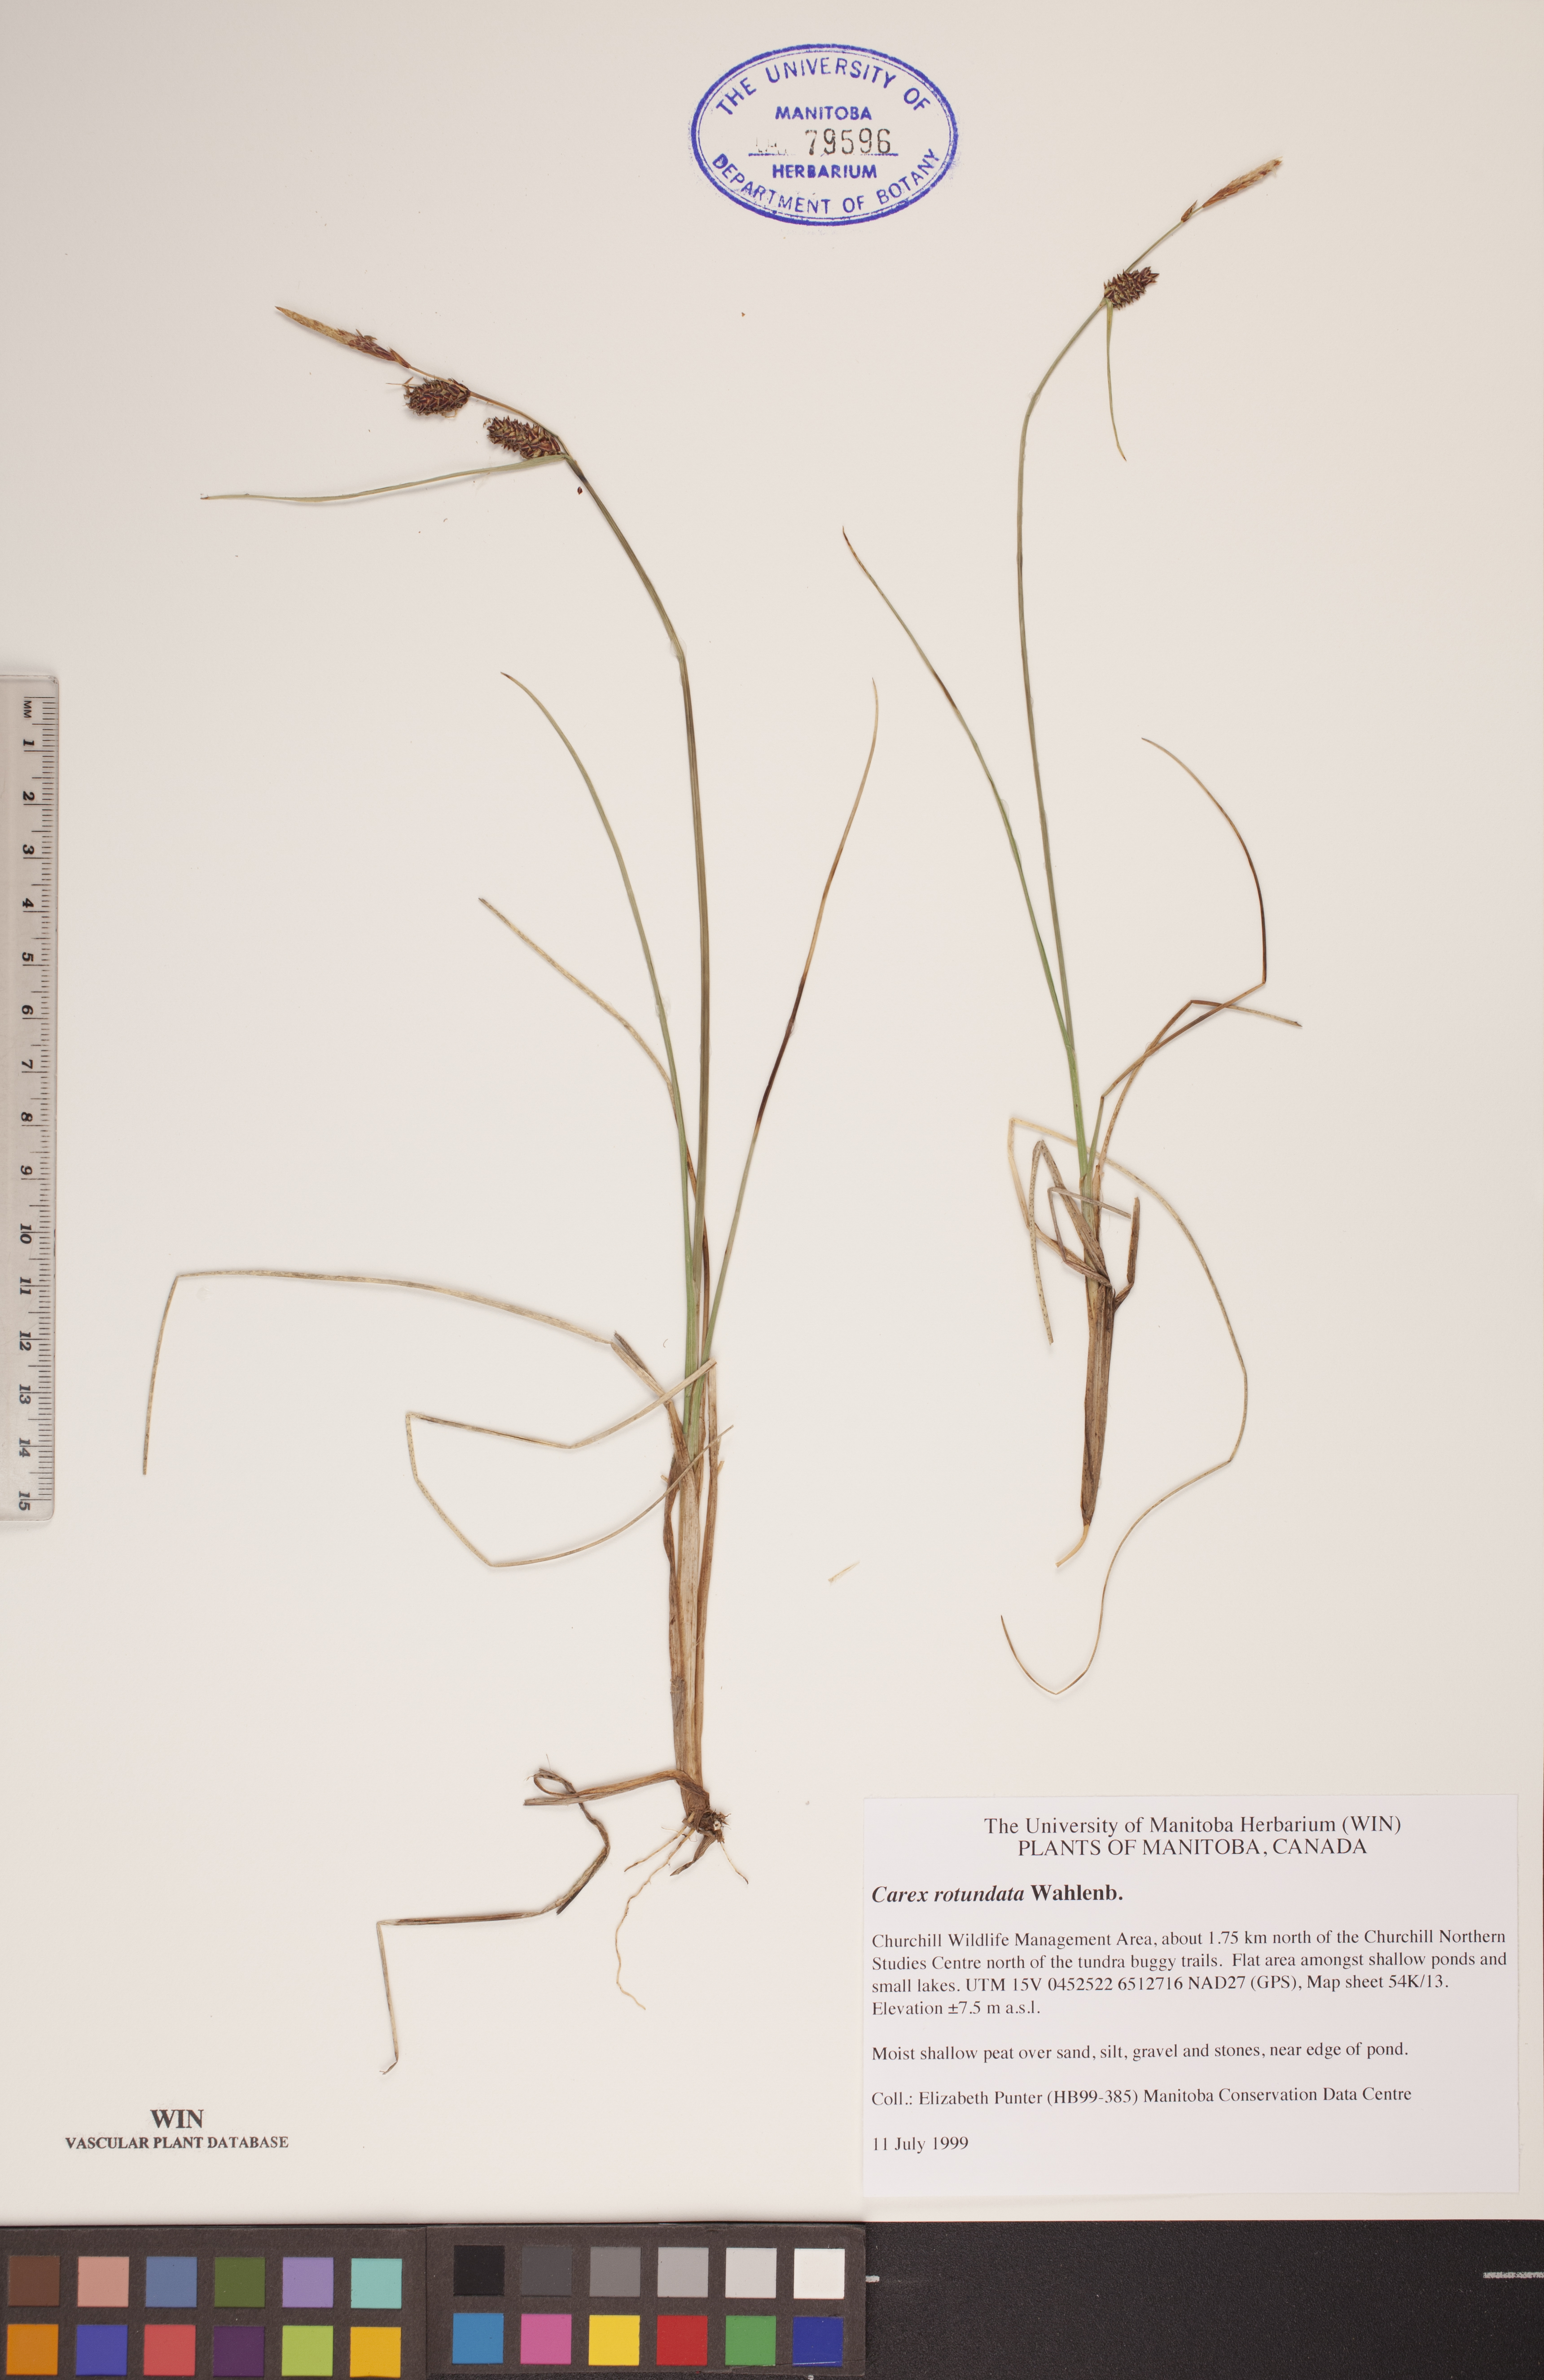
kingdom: Plantae
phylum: Tracheophyta
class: Liliopsida
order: Poales
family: Cyperaceae
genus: Carex
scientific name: Carex rotundata
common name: Round-fruited sedge
